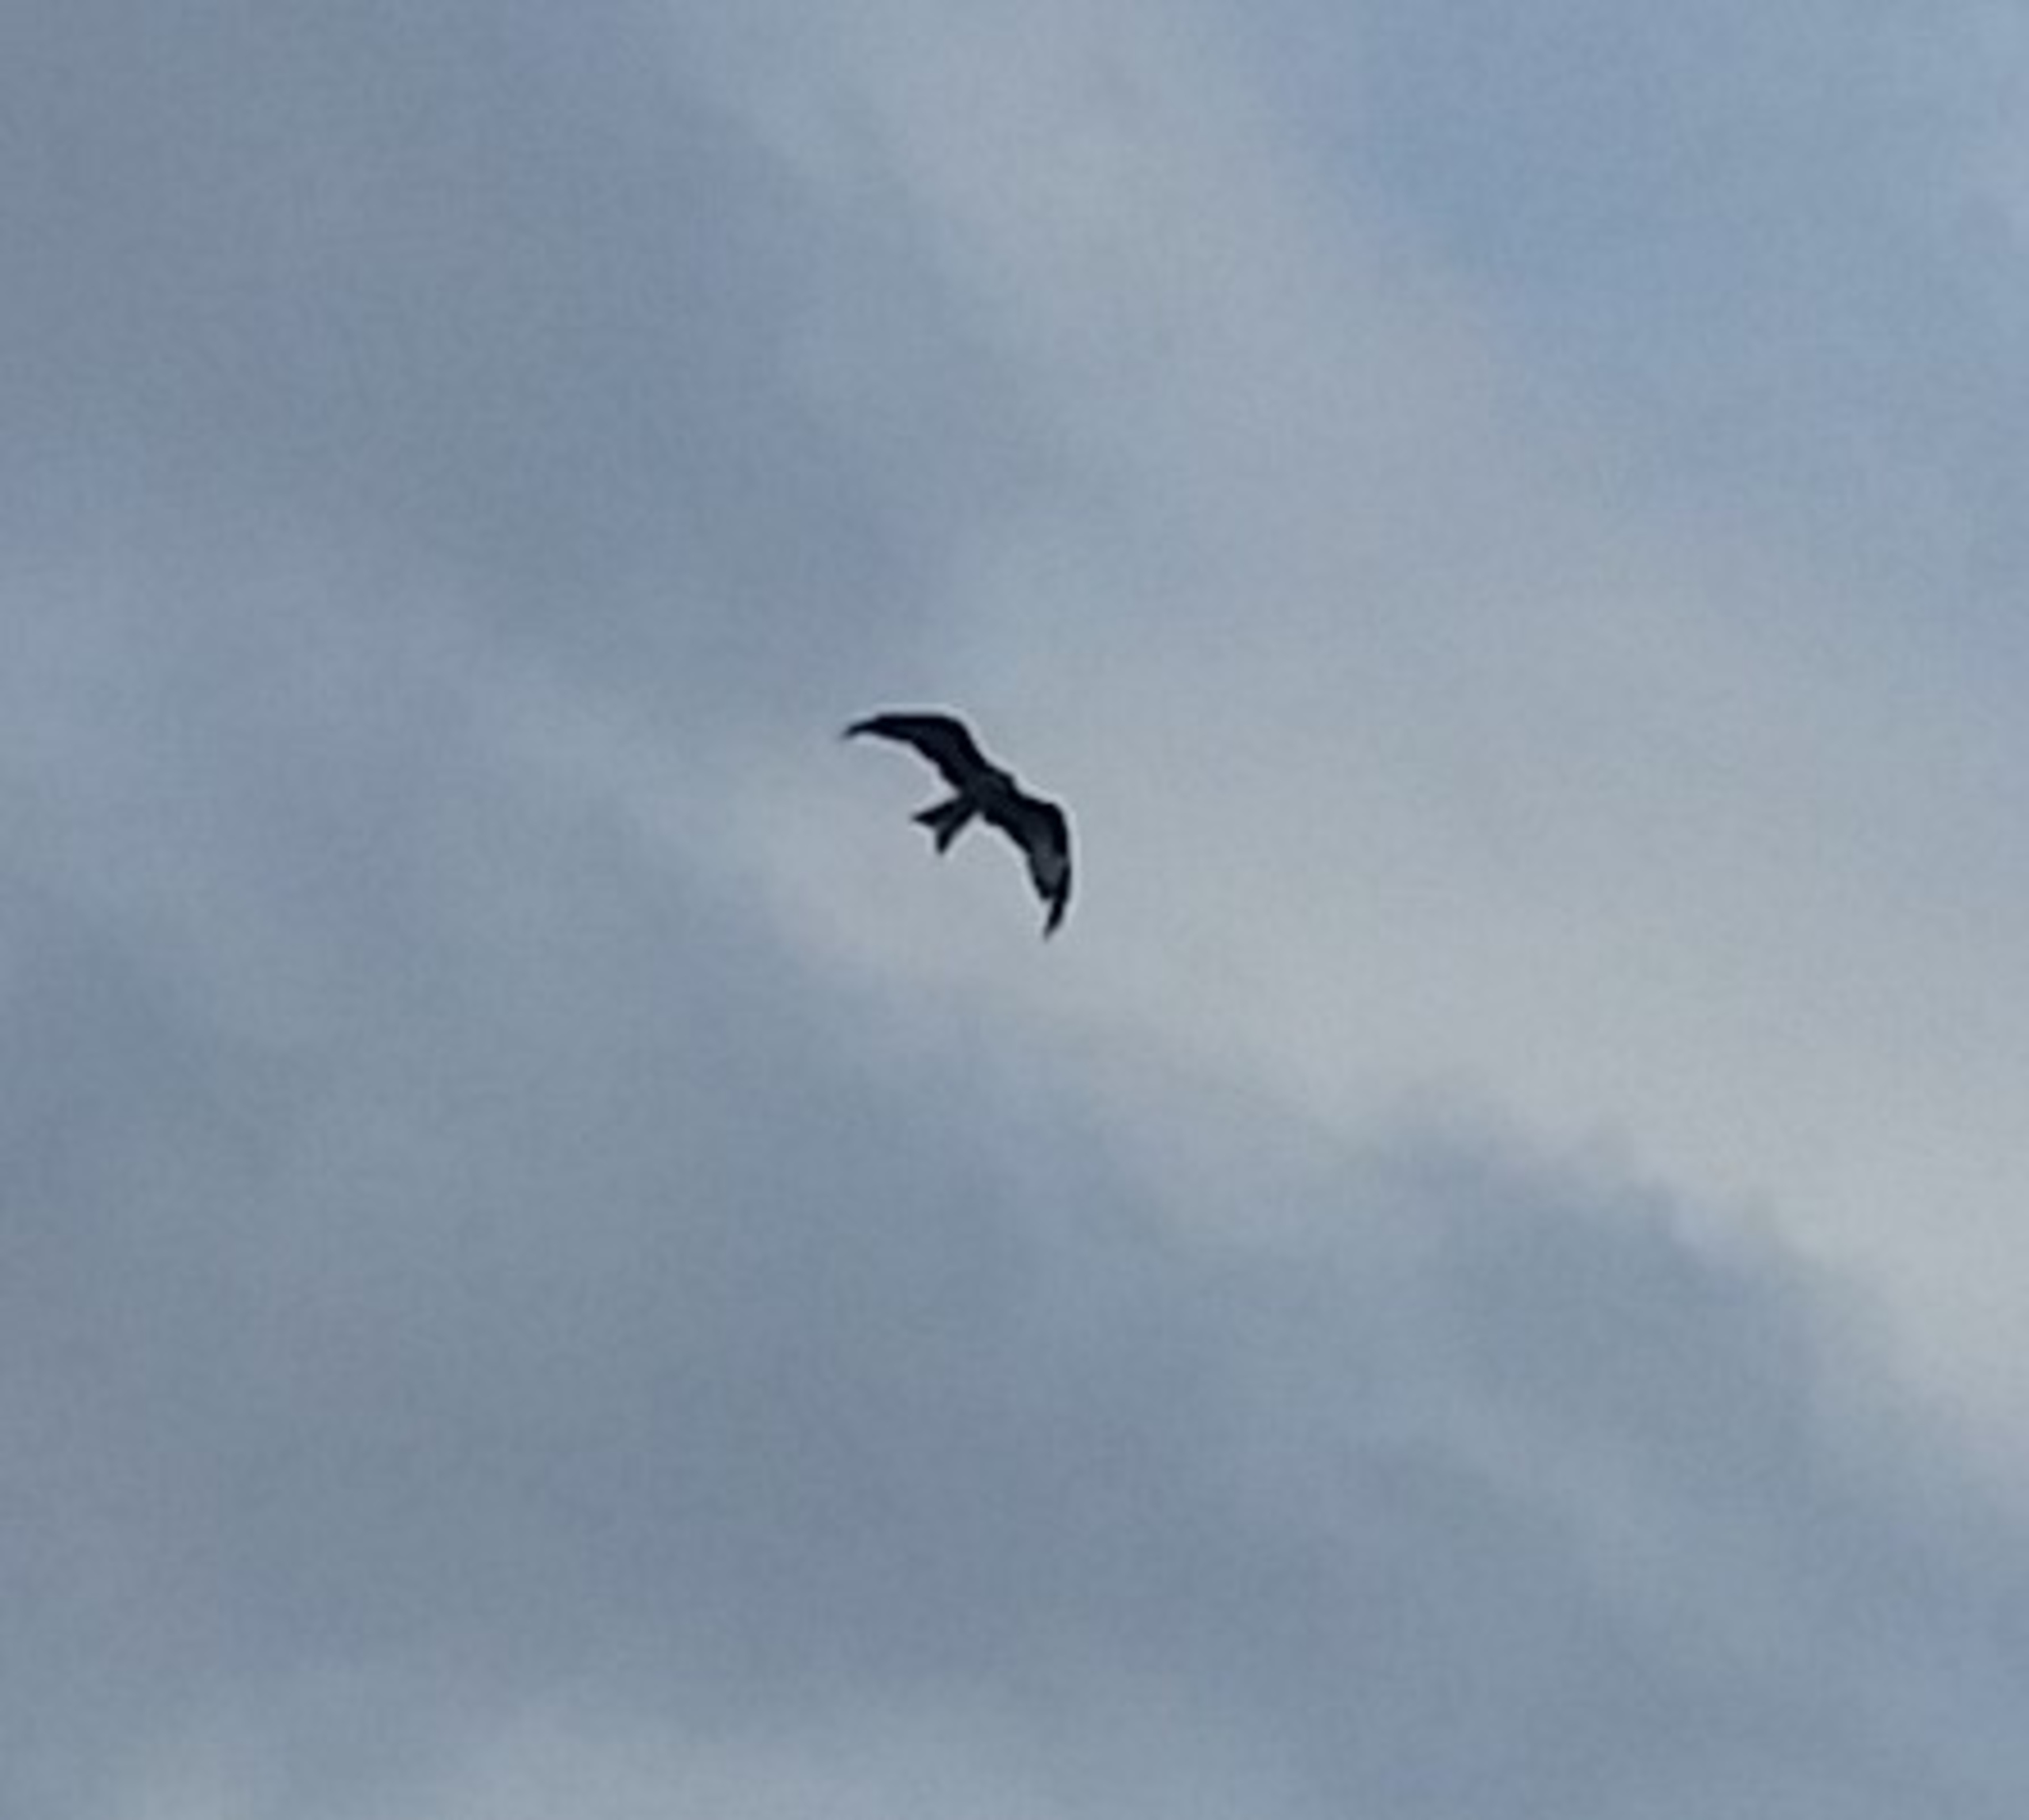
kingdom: Animalia
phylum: Chordata
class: Aves
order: Accipitriformes
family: Accipitridae
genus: Milvus
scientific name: Milvus milvus
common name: Rød glente
